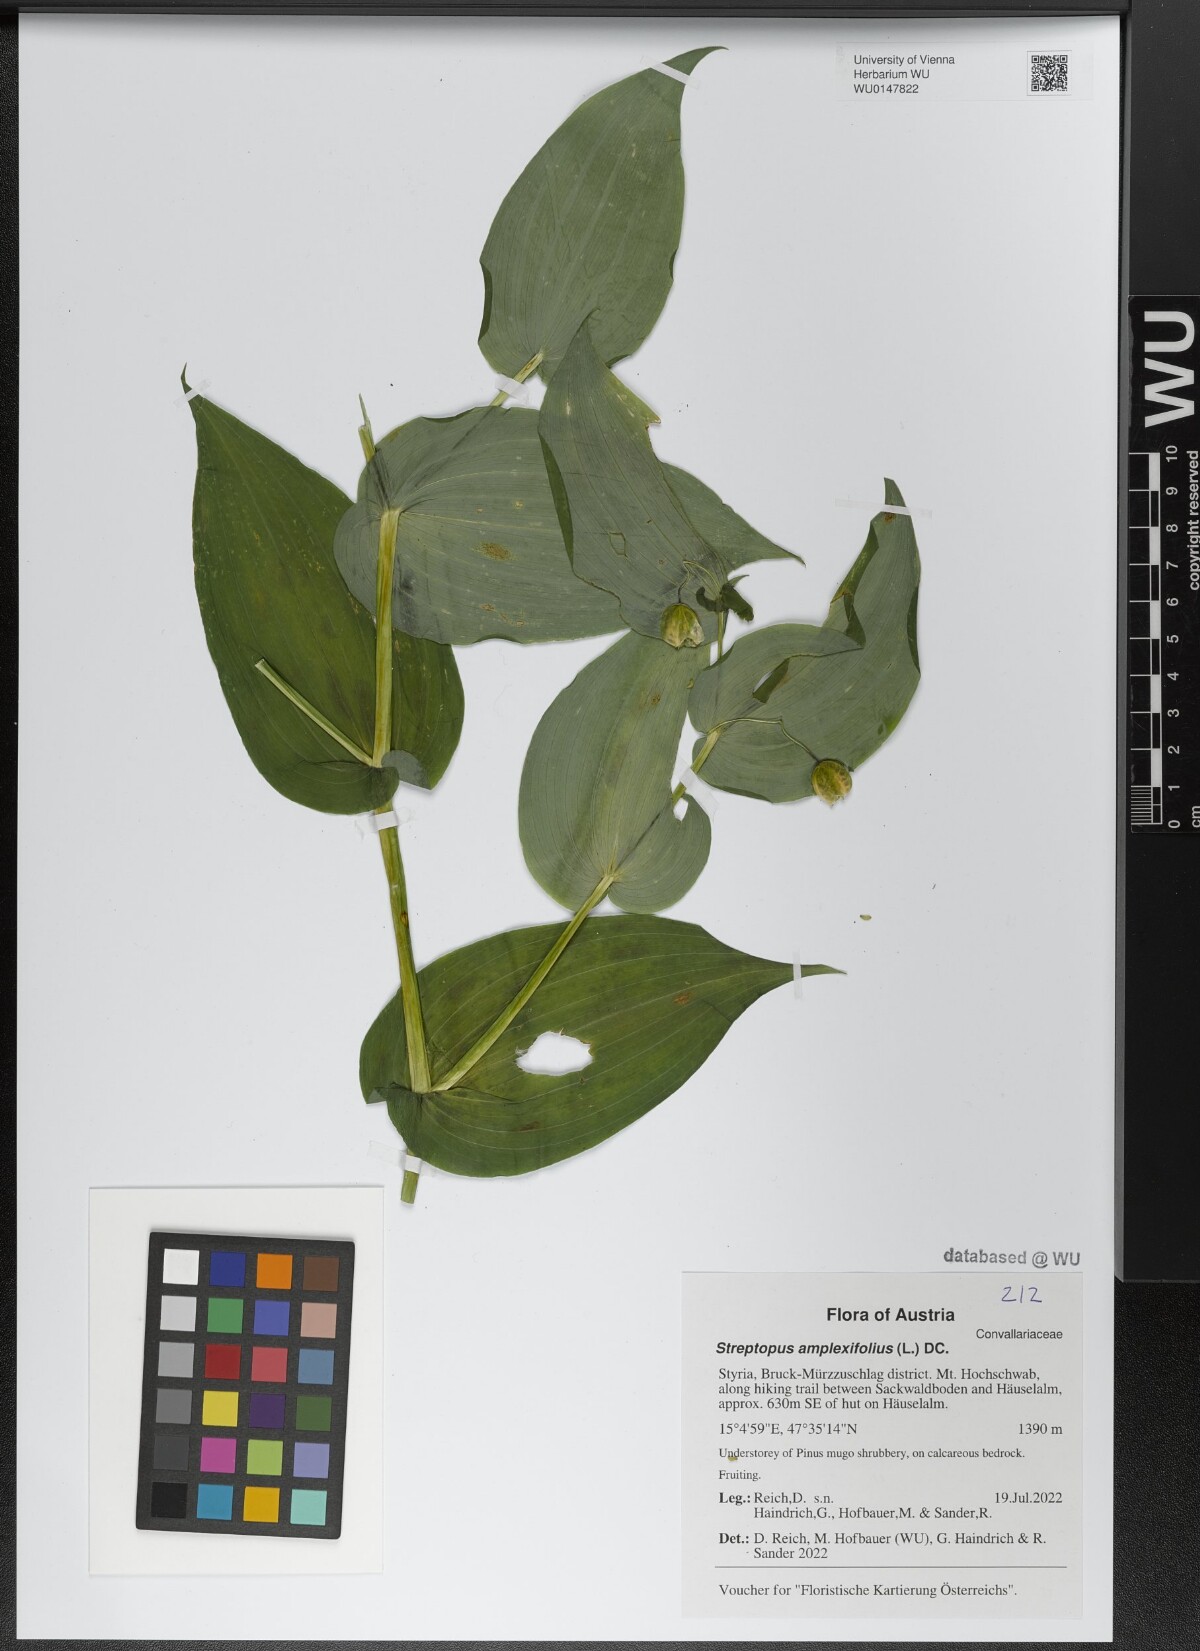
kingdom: Plantae
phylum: Tracheophyta
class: Liliopsida
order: Liliales
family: Liliaceae
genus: Streptopus
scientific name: Streptopus amplexifolius
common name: Clasp twisted stalk
